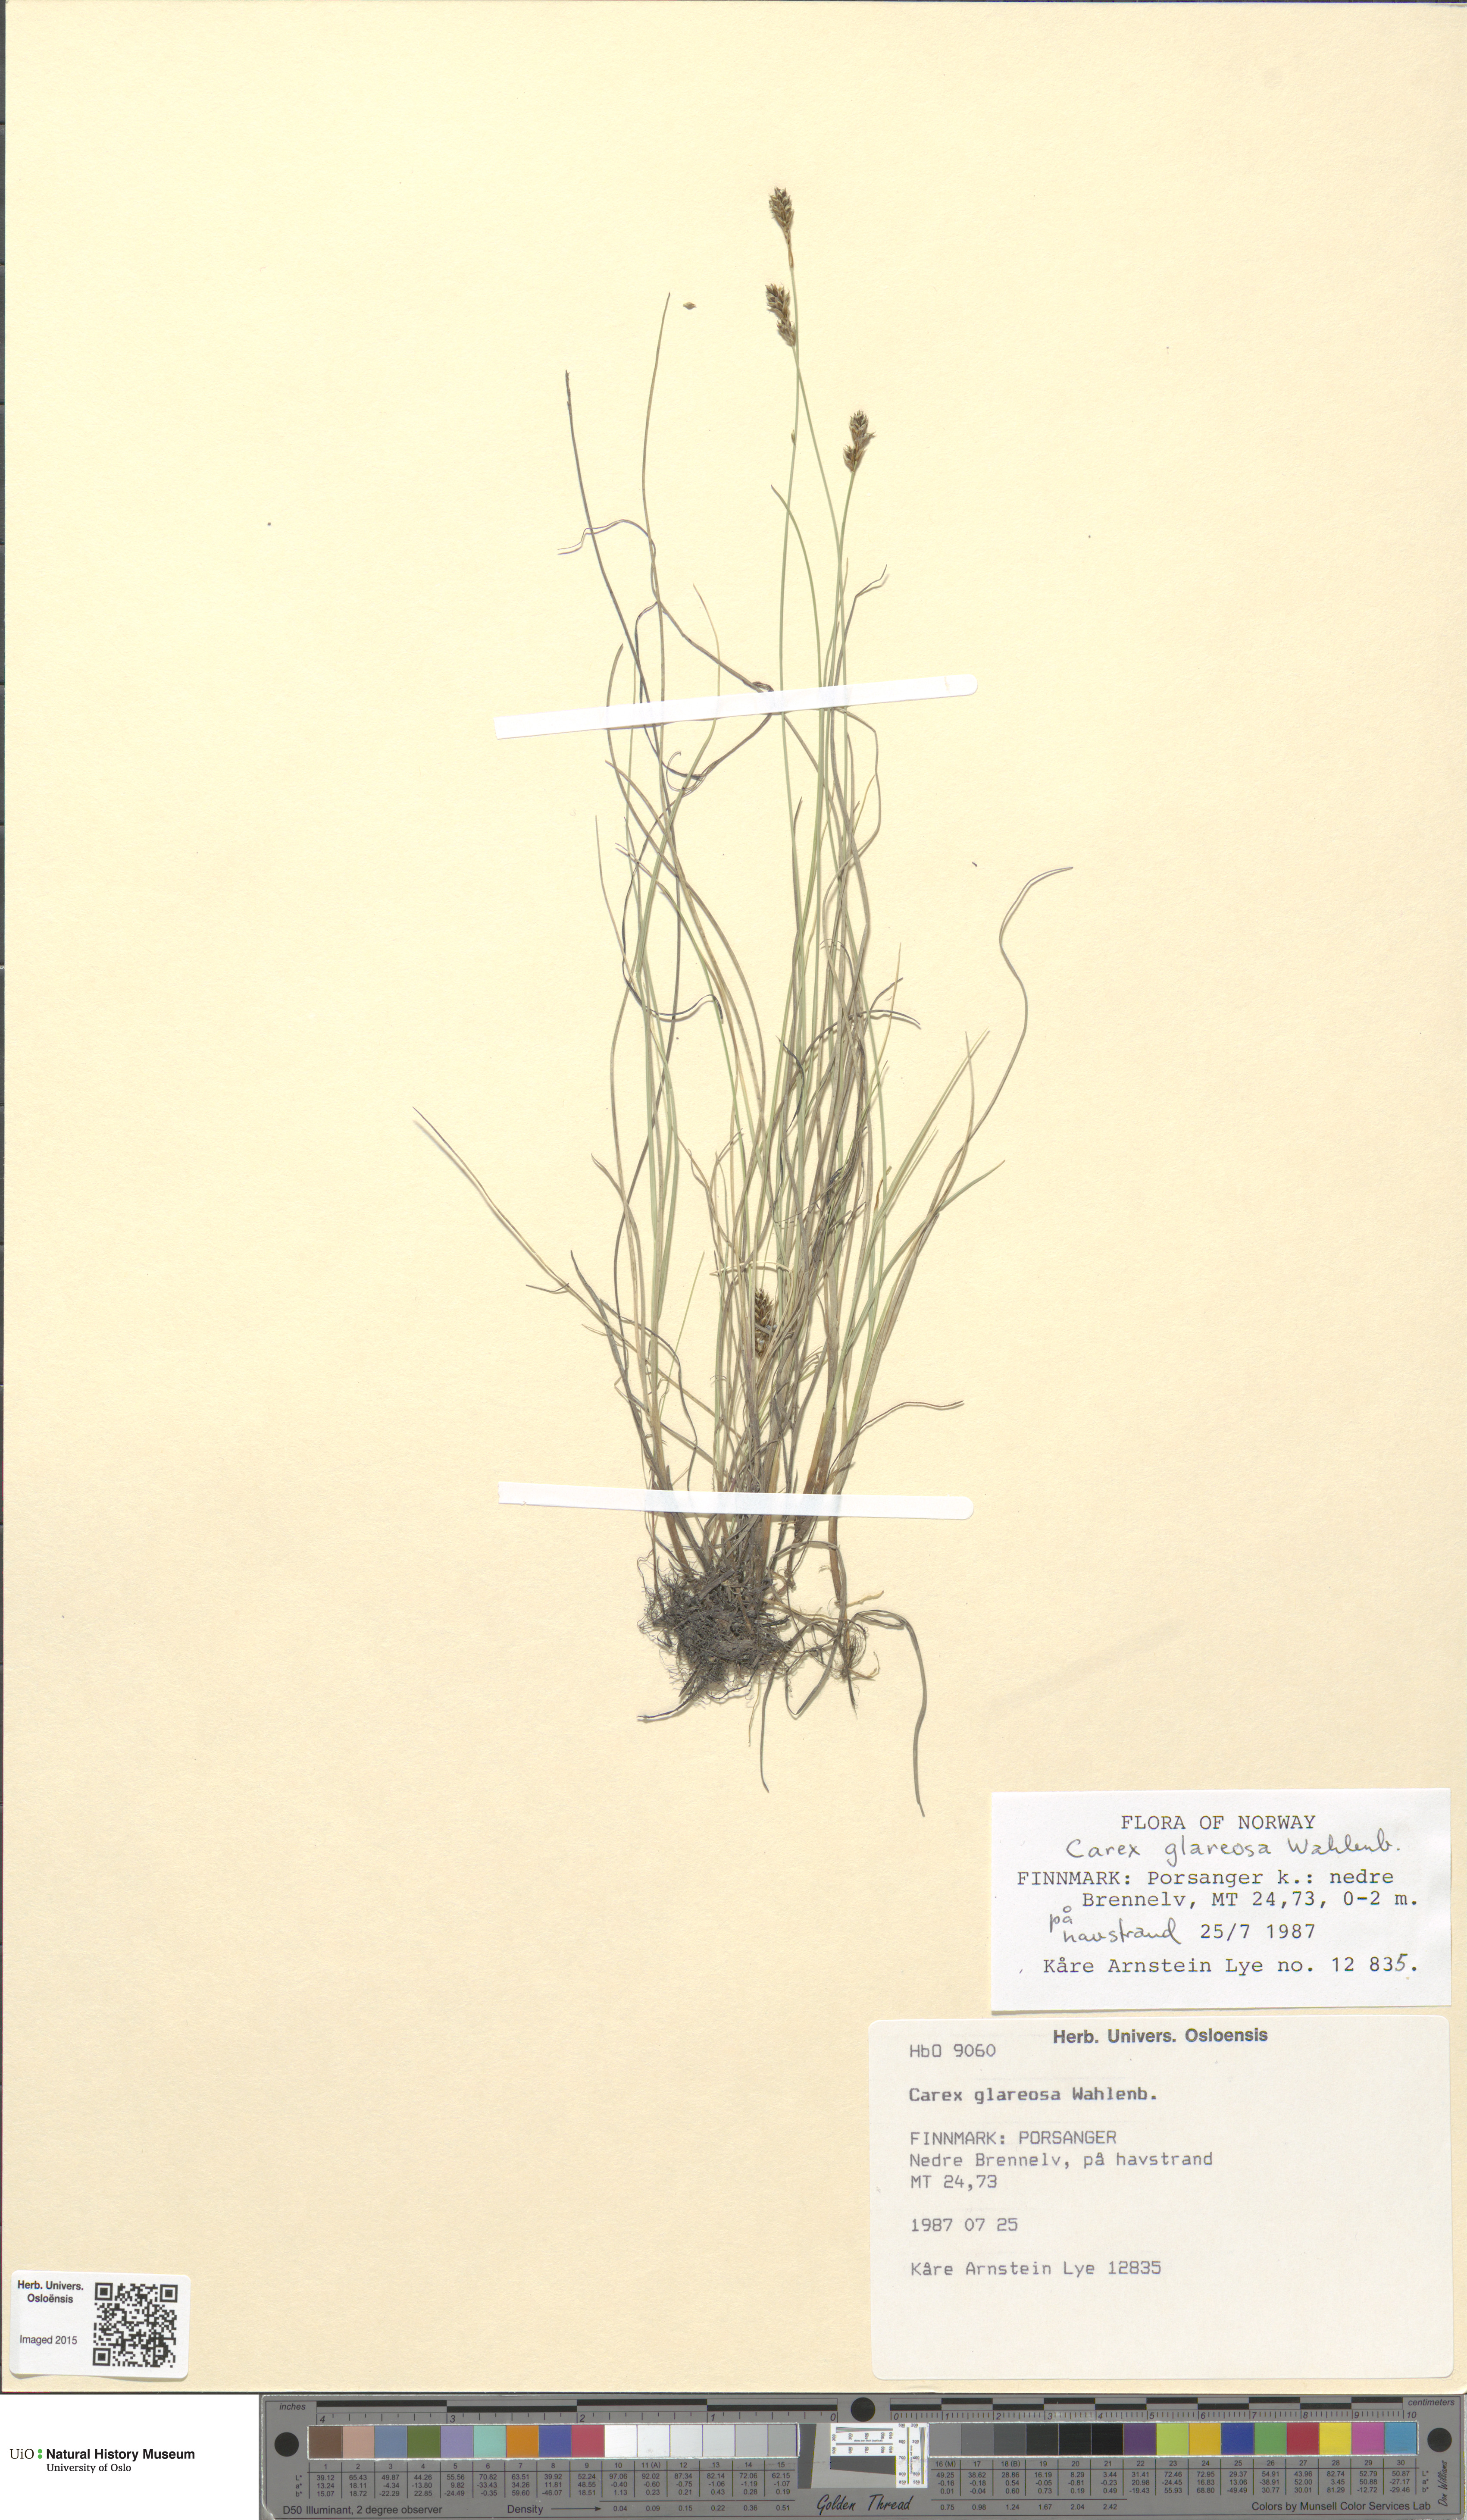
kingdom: Plantae
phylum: Tracheophyta
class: Liliopsida
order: Poales
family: Cyperaceae
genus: Carex
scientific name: Carex glareosa
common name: Clustered sedge
